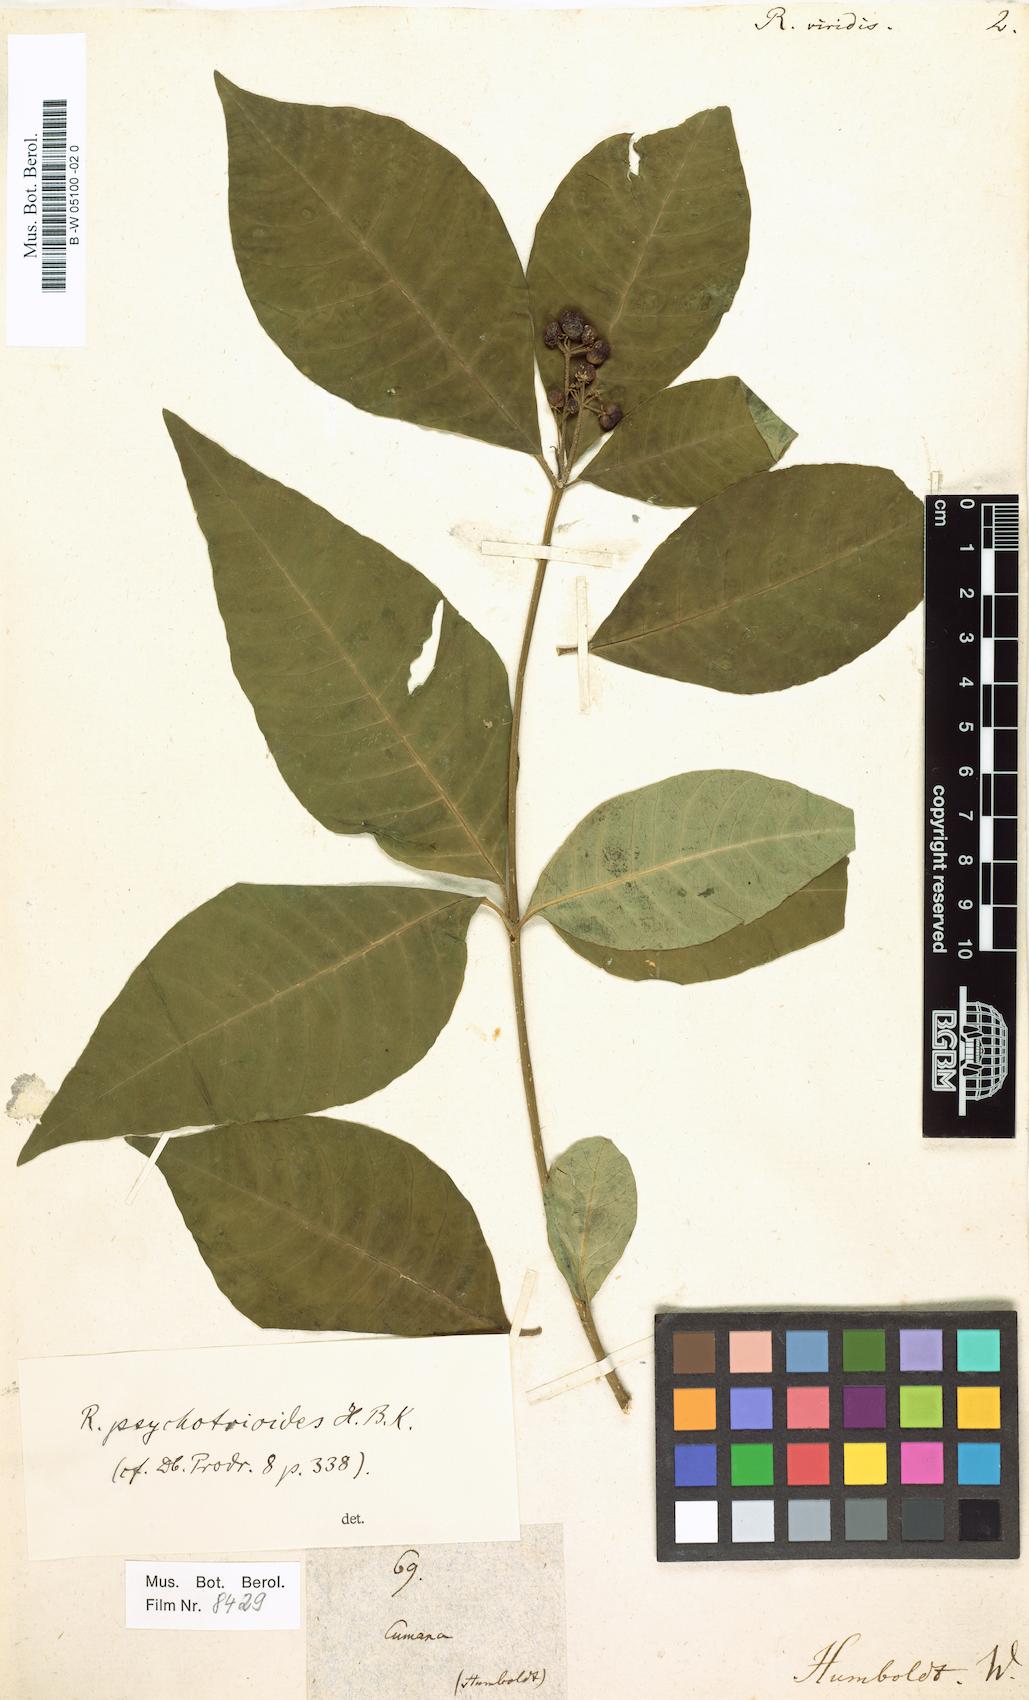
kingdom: Plantae
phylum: Tracheophyta
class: Magnoliopsida
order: Gentianales
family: Apocynaceae
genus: Rauvolfia
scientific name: Rauvolfia viridis
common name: Bellyache
